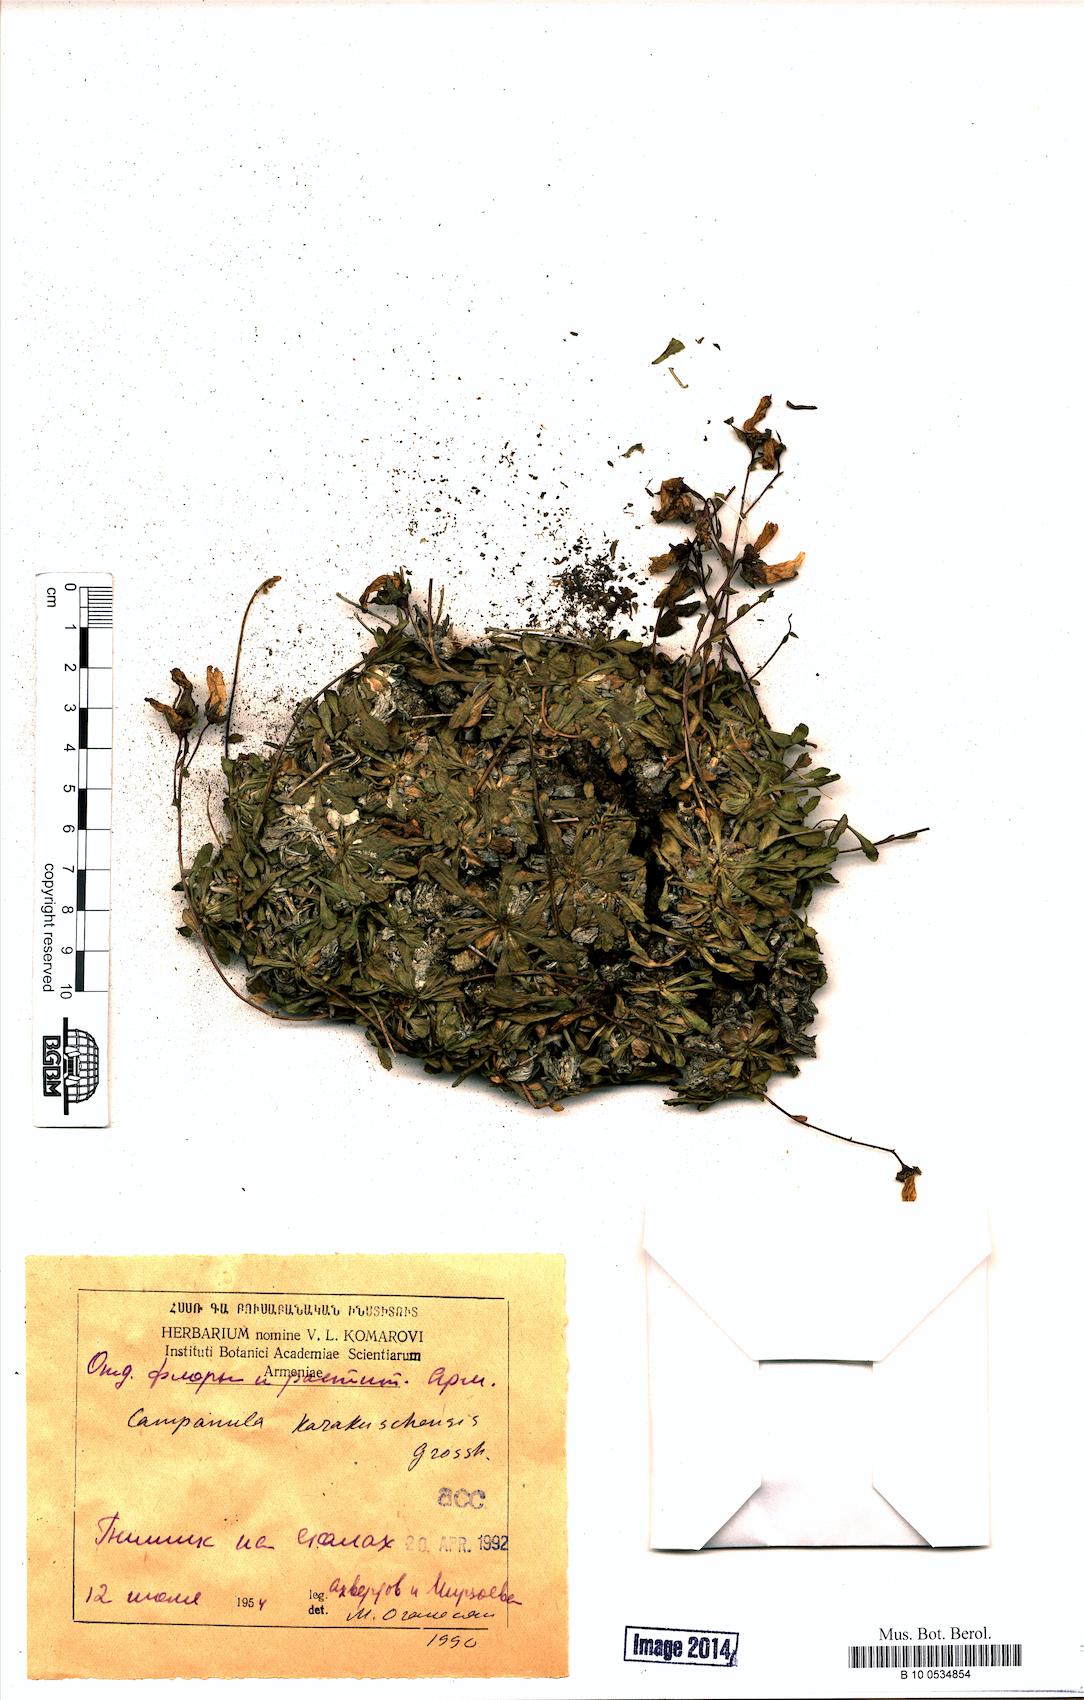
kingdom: Plantae
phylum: Tracheophyta
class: Magnoliopsida
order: Asterales
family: Campanulaceae
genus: Campanula
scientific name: Campanula karakuschensis
